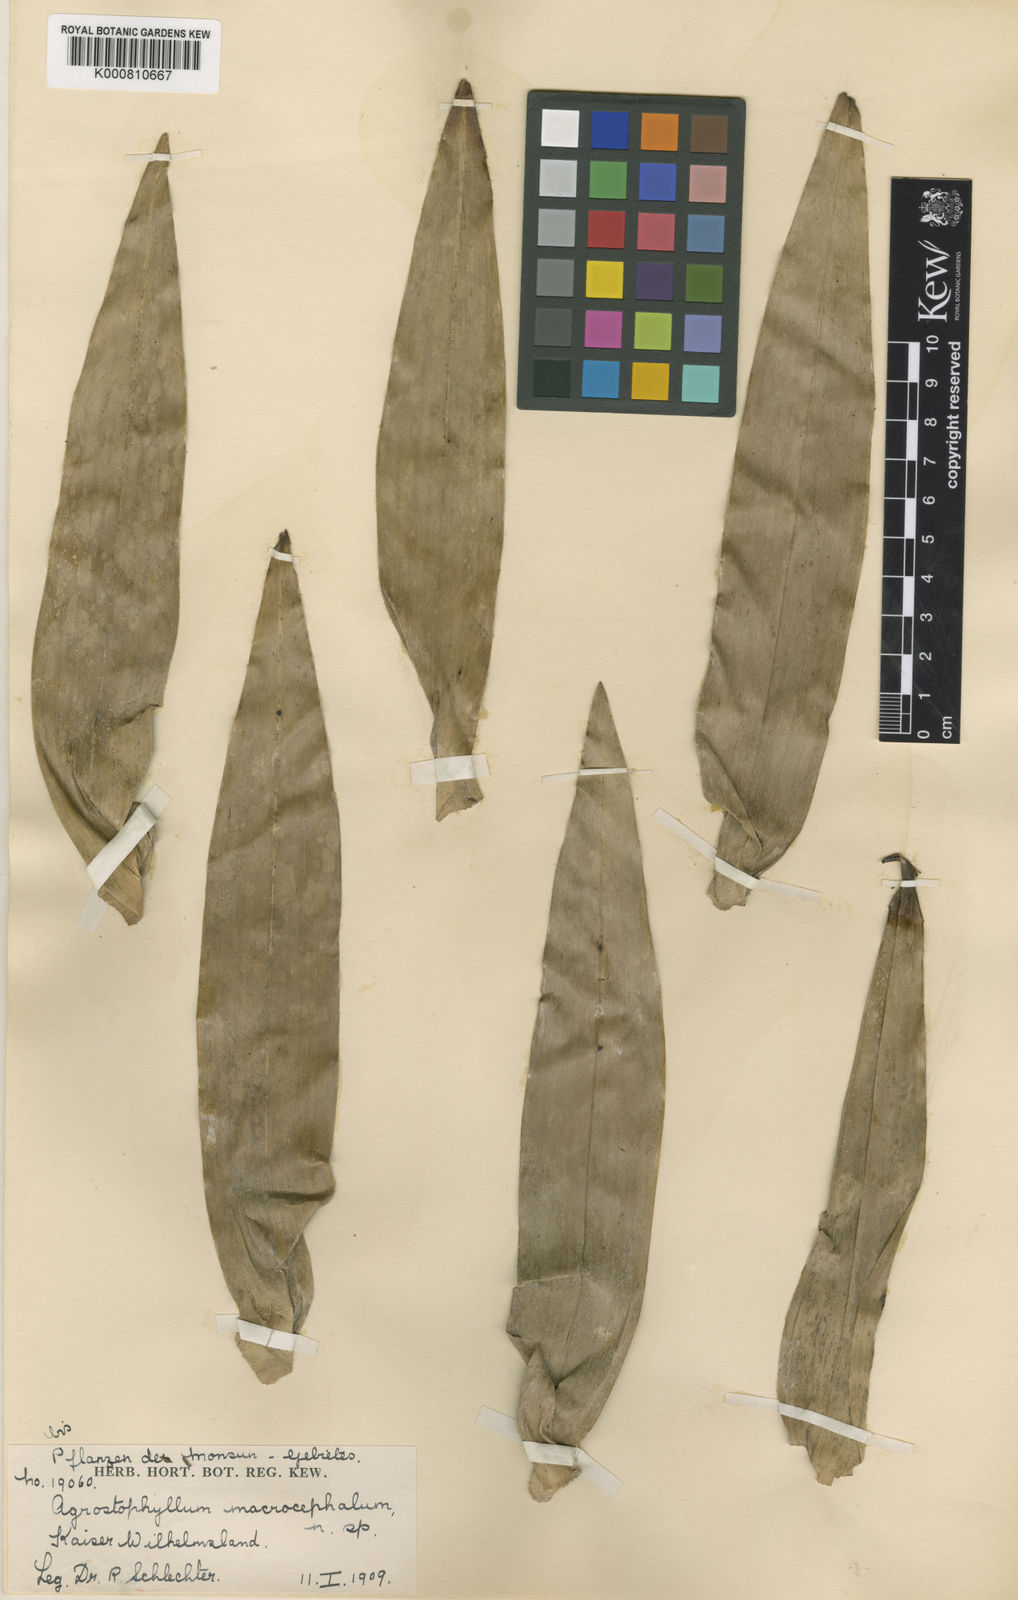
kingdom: Plantae
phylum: Tracheophyta
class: Liliopsida
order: Asparagales
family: Orchidaceae
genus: Agrostophyllum
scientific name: Agrostophyllum macrocephalum
